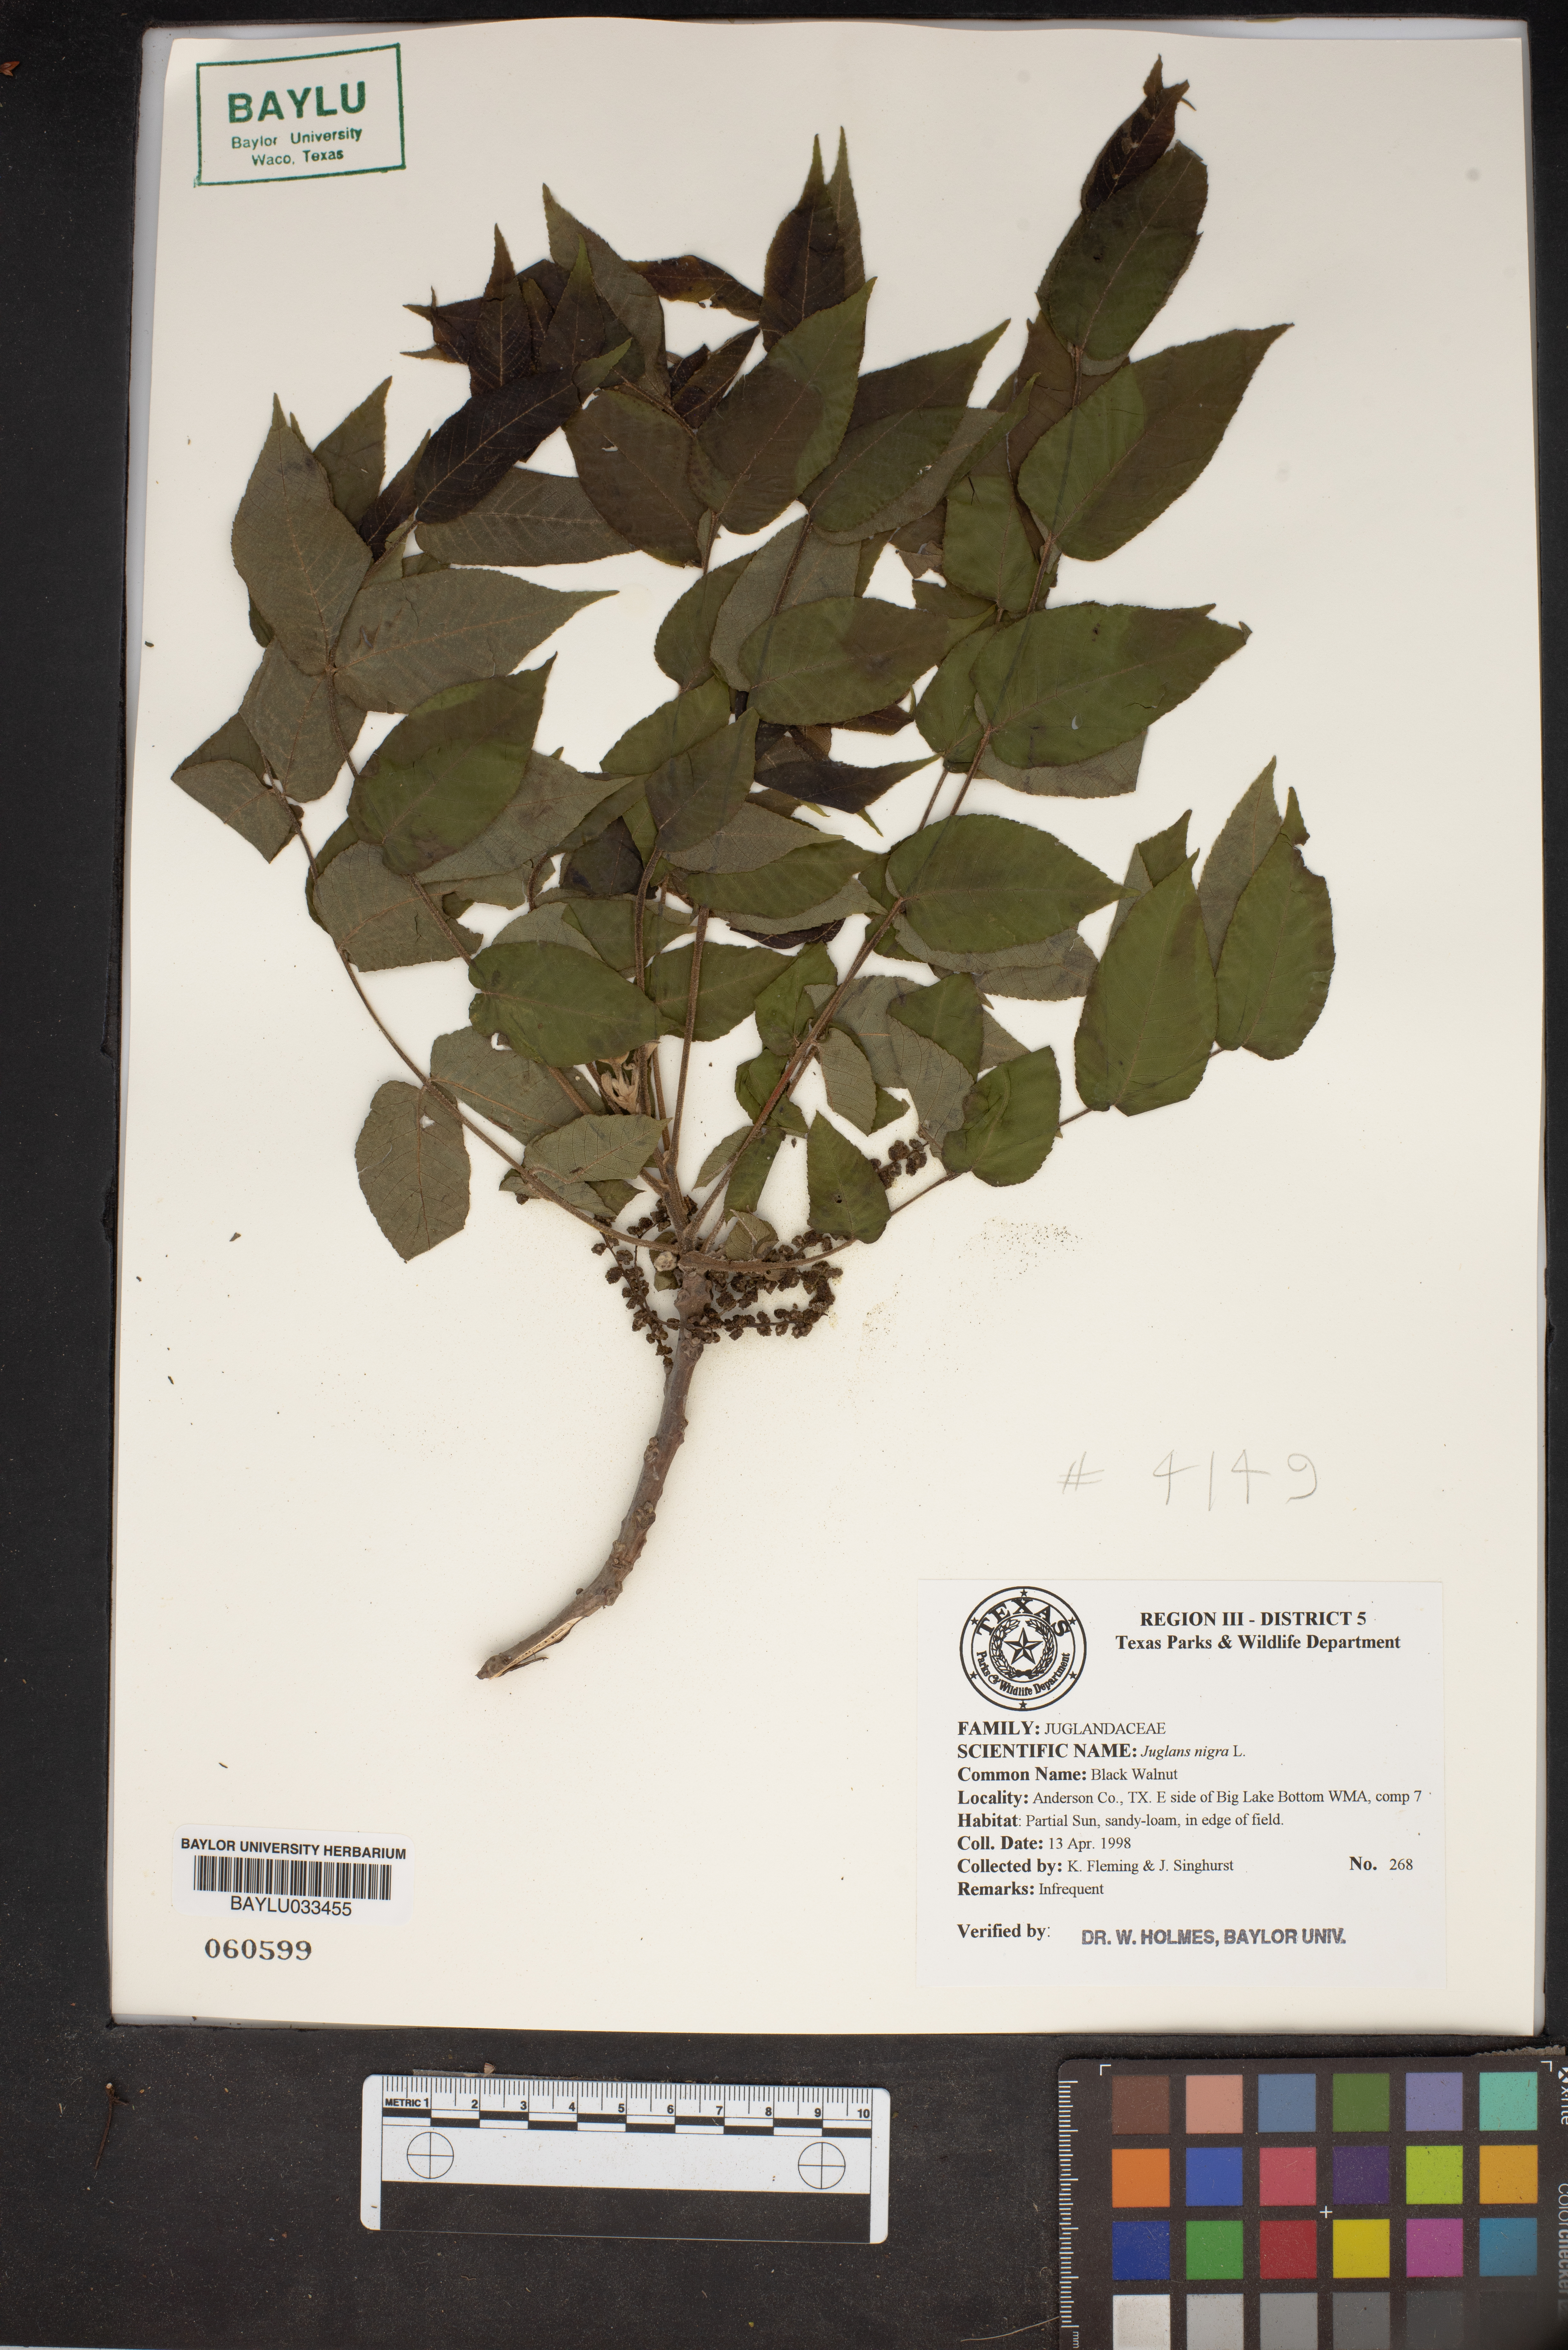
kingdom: Plantae
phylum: Tracheophyta
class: Magnoliopsida
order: Fagales
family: Juglandaceae
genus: Juglans
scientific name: Juglans nigra
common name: Black walnut
